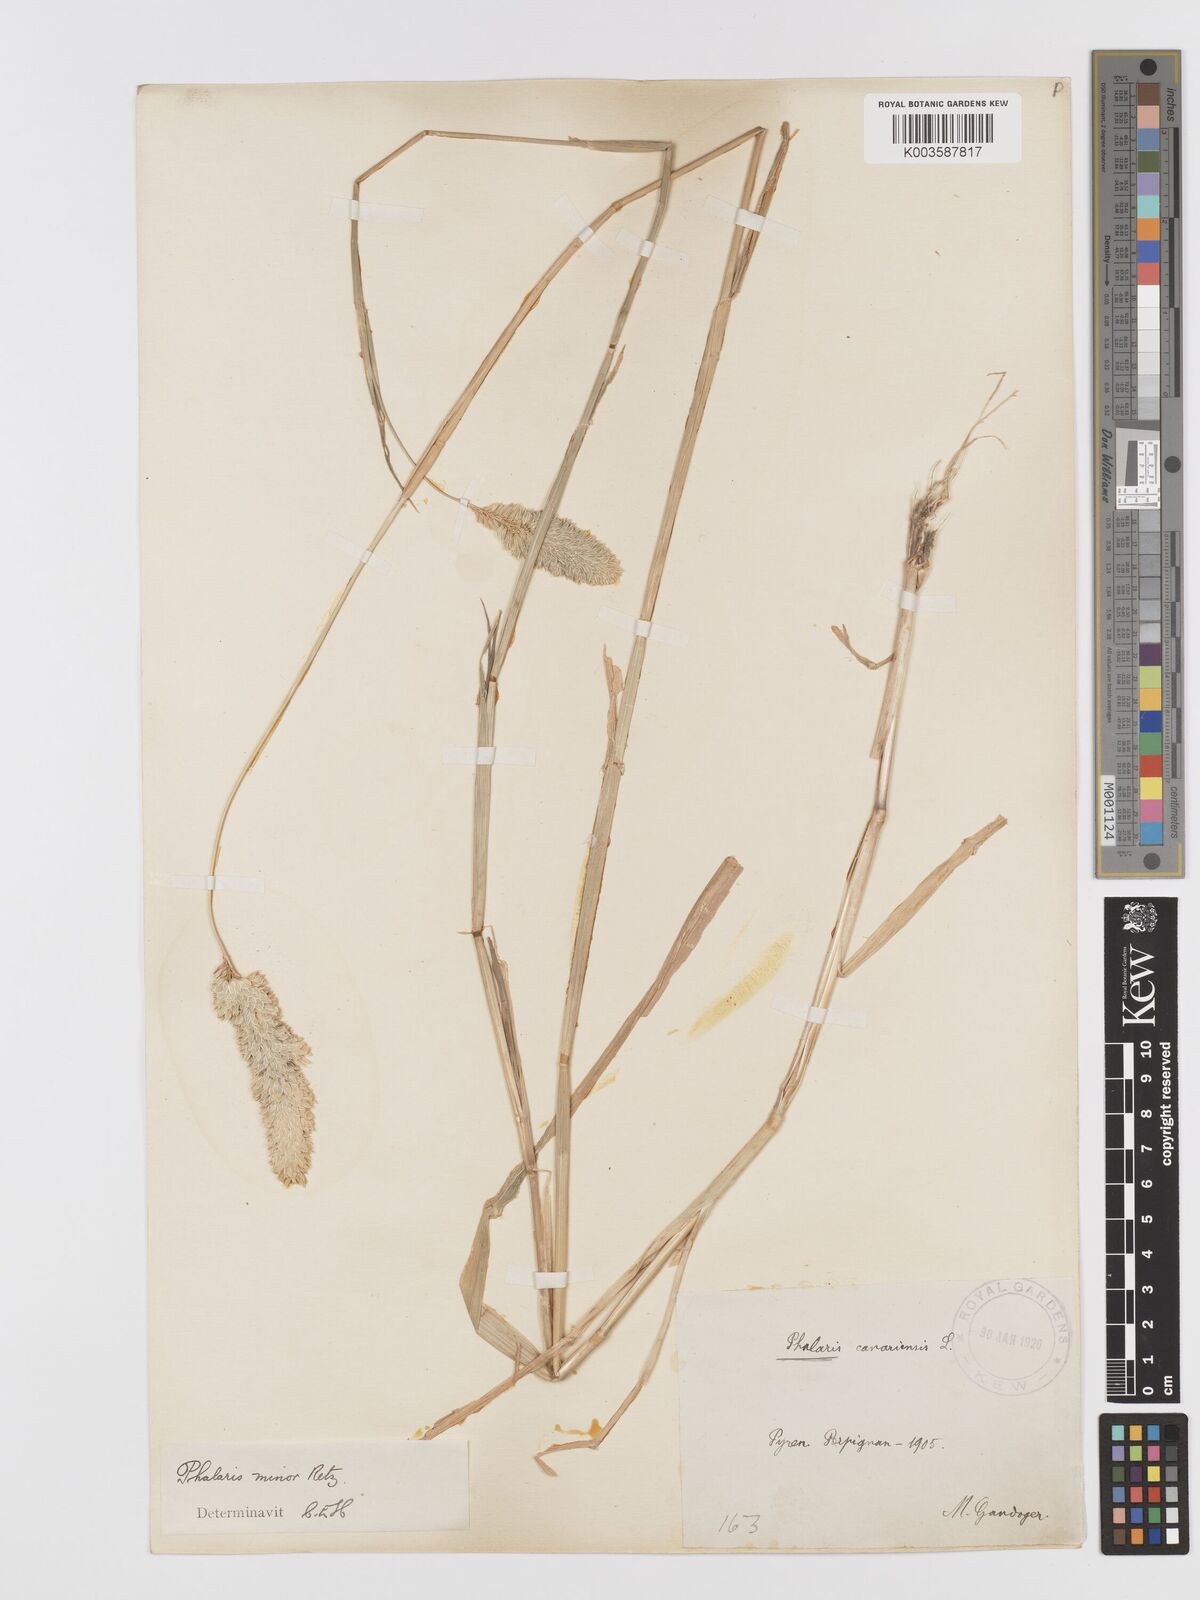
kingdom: Plantae
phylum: Tracheophyta
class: Liliopsida
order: Poales
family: Poaceae
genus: Phalaris
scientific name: Phalaris minor
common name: Littleseed canarygrass
